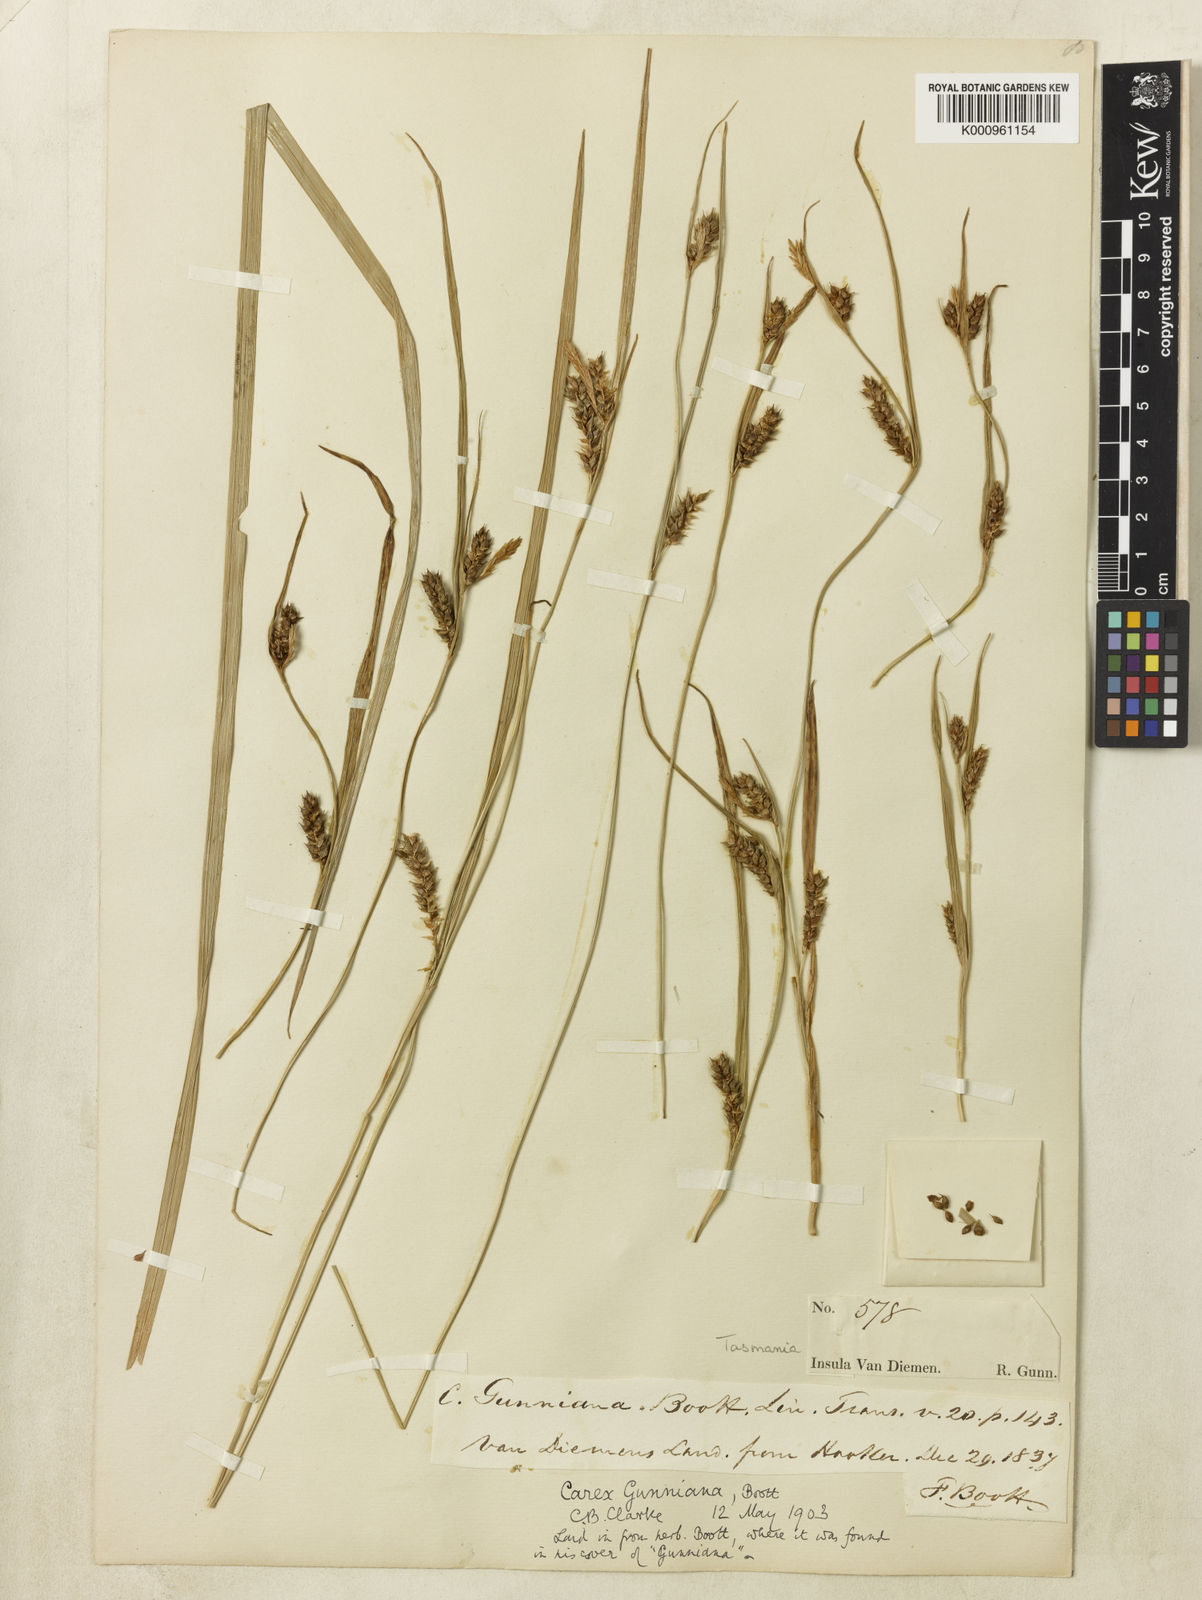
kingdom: Plantae
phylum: Tracheophyta
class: Liliopsida
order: Poales
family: Cyperaceae
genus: Carex
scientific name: Carex gunniana
